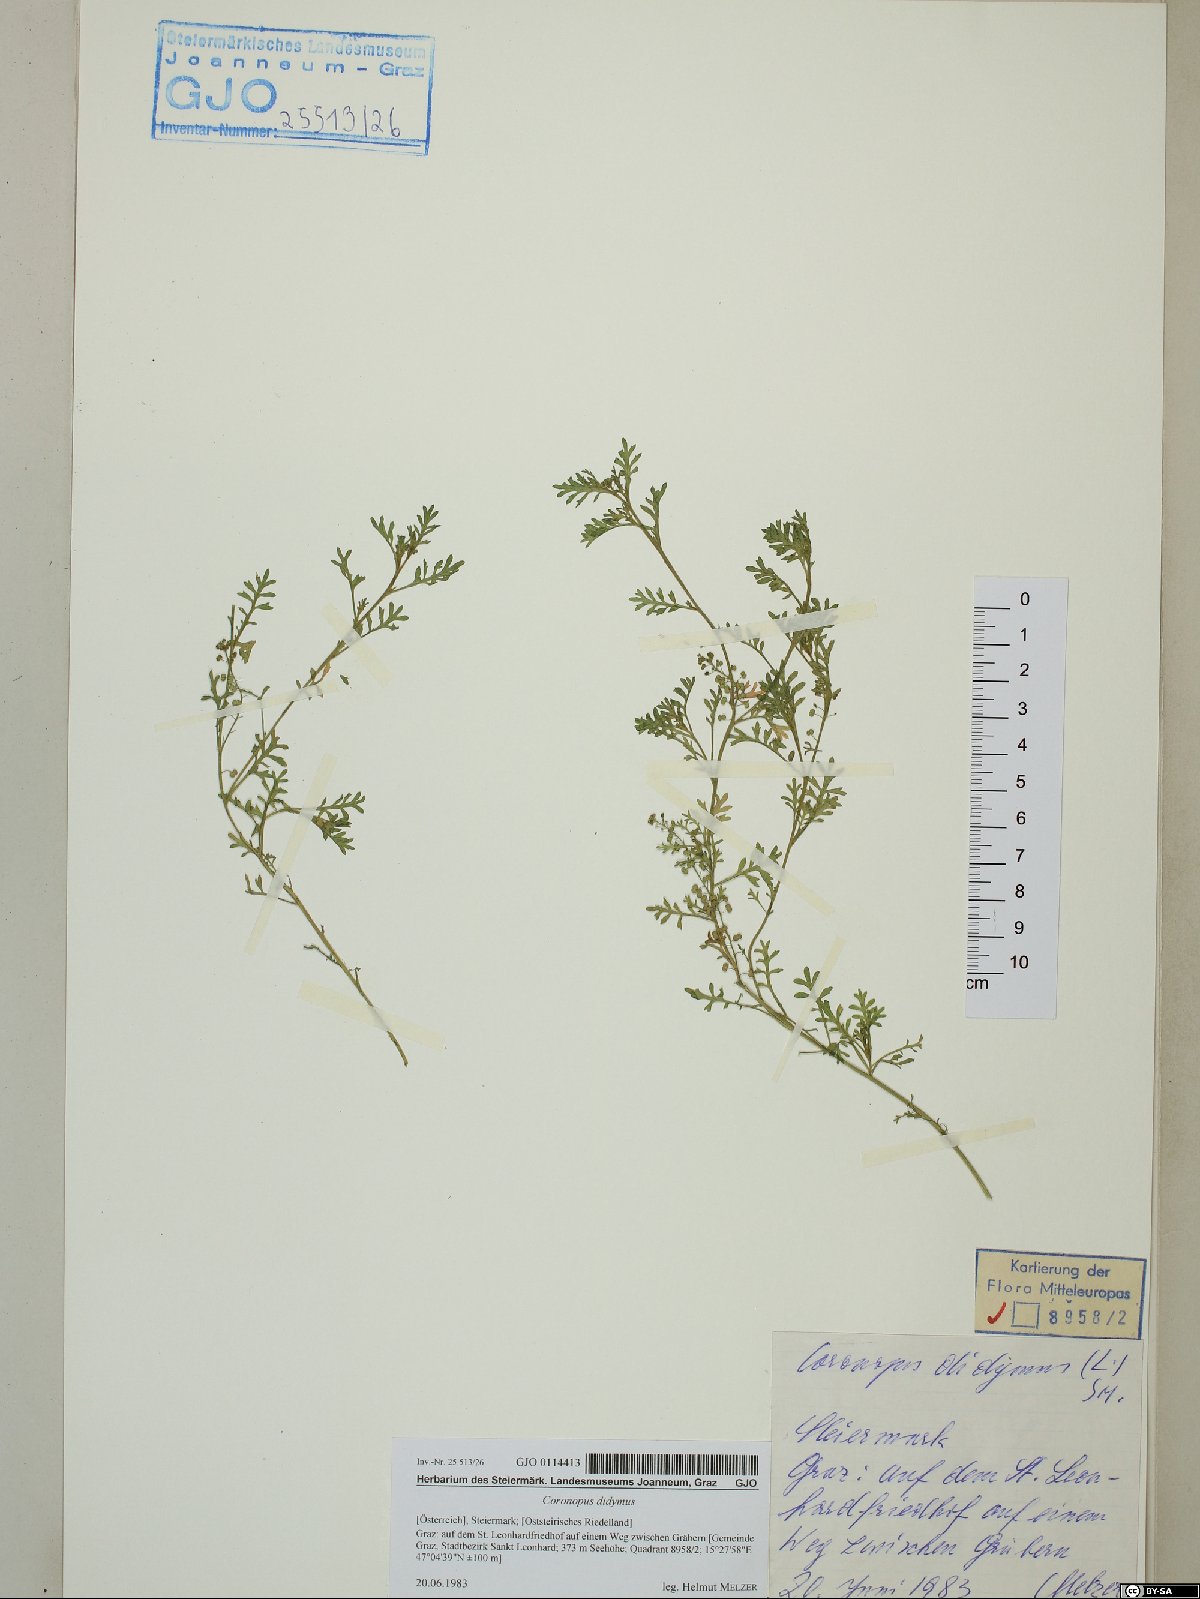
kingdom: Plantae
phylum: Tracheophyta
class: Magnoliopsida
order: Brassicales
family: Brassicaceae
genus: Lepidium
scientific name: Lepidium didymum
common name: Lesser swinecress
